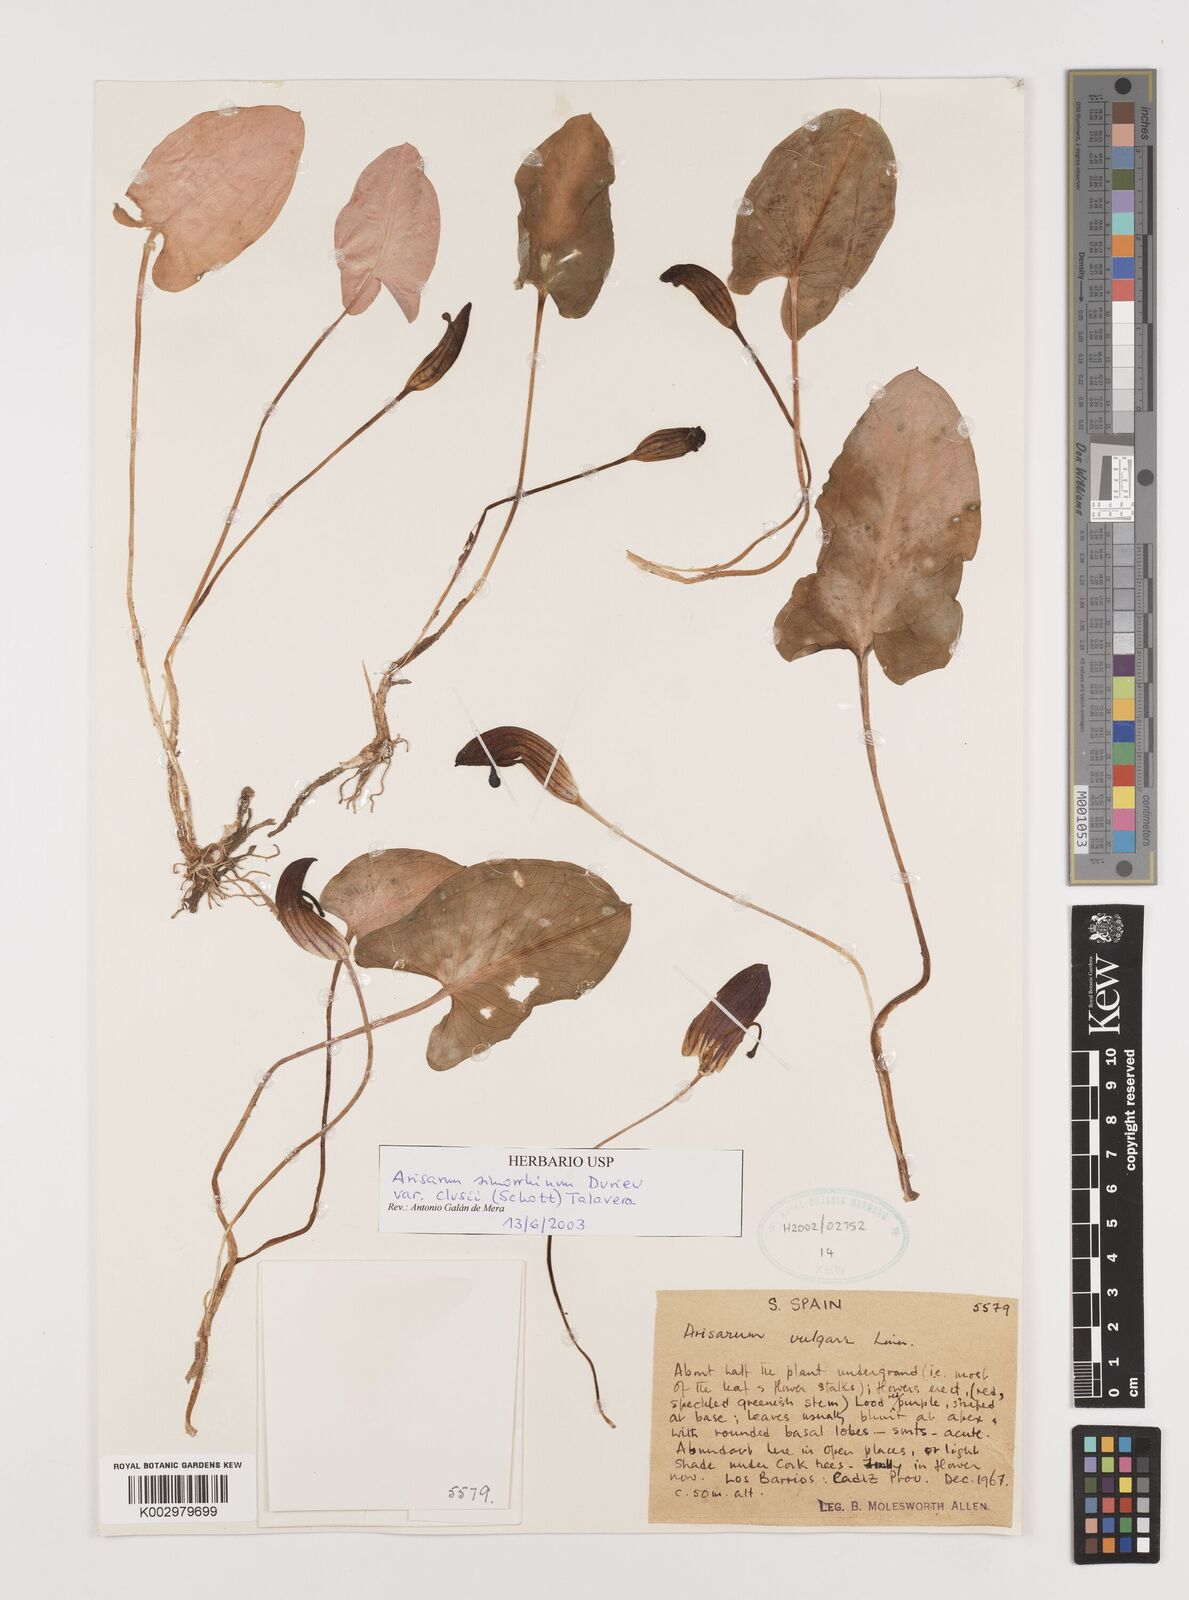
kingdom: Plantae
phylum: Tracheophyta
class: Liliopsida
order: Alismatales
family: Araceae
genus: Arisarum
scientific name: Arisarum simorrhinum
